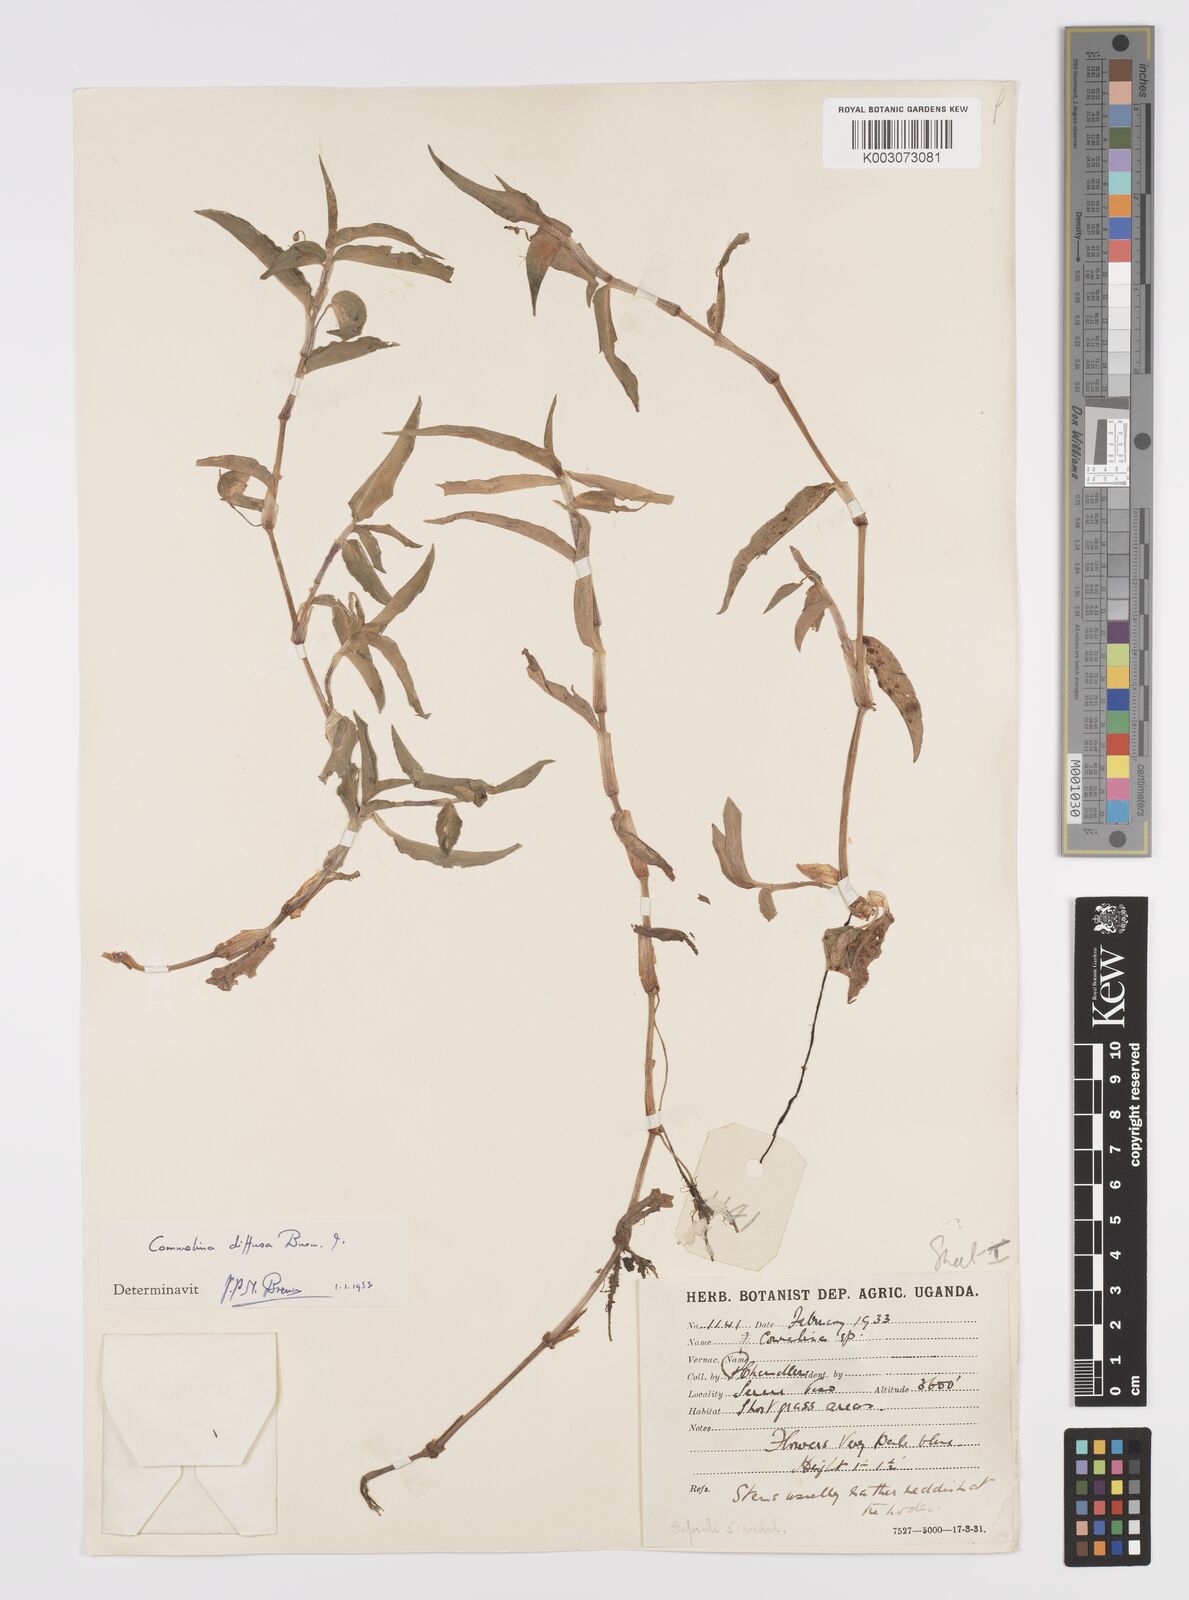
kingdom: Plantae
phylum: Tracheophyta
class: Liliopsida
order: Commelinales
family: Commelinaceae
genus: Commelina
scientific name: Commelina diffusa
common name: Climbing dayflower
